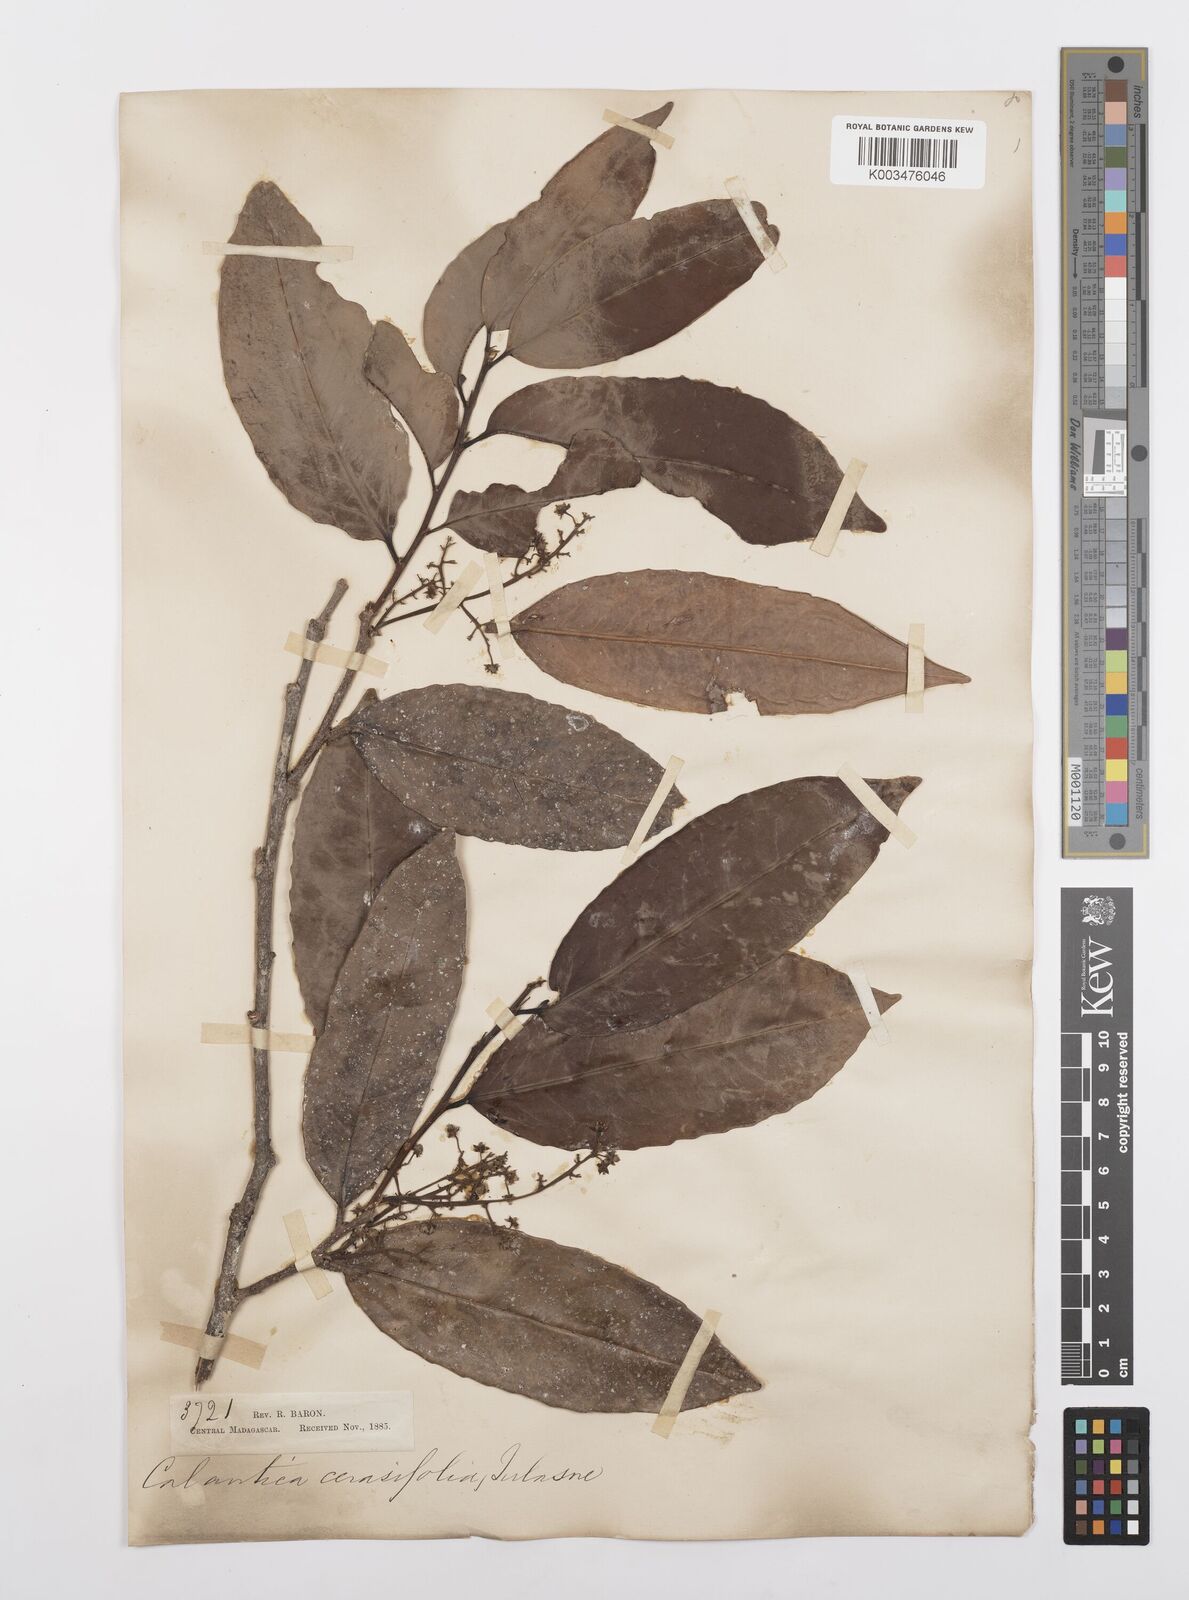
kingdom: Plantae
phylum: Tracheophyta
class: Magnoliopsida
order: Malpighiales
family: Salicaceae
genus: Calantica
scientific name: Calantica cerasifolia
